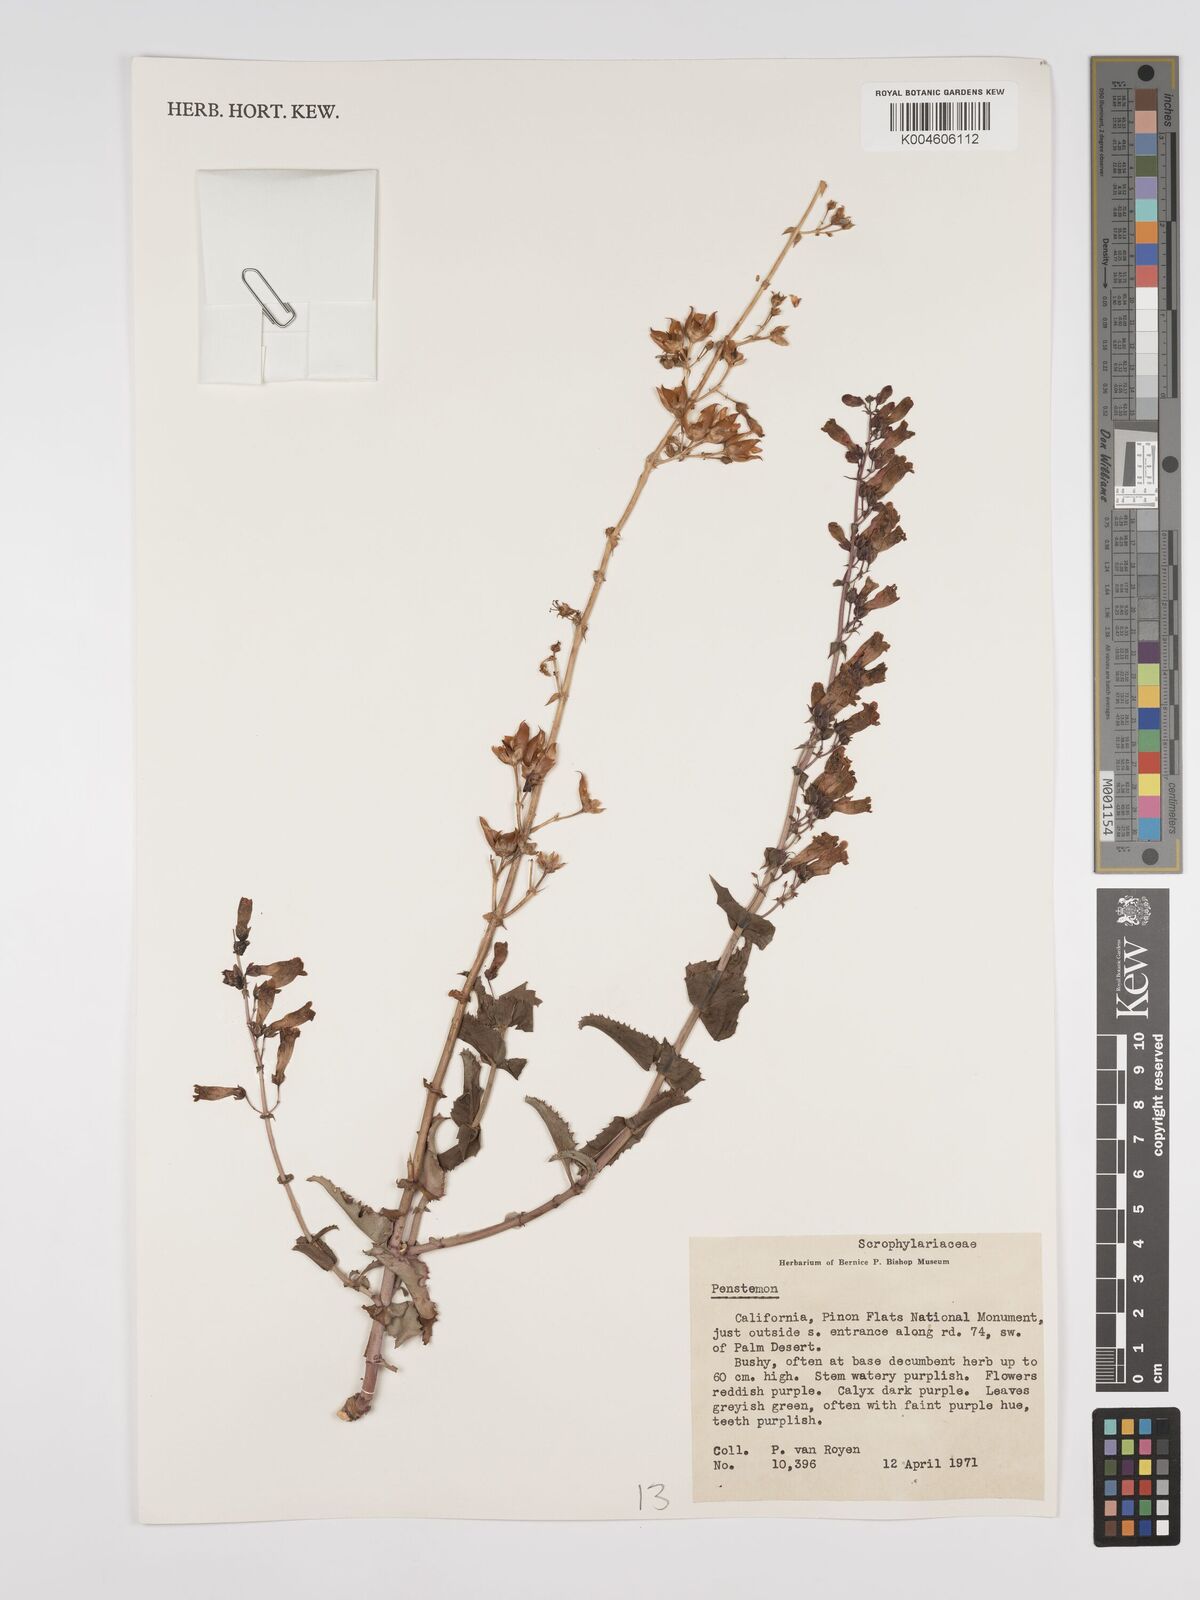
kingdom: Plantae
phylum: Tracheophyta
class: Magnoliopsida
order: Lamiales
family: Plantaginaceae
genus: Penstemon
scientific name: Penstemon
